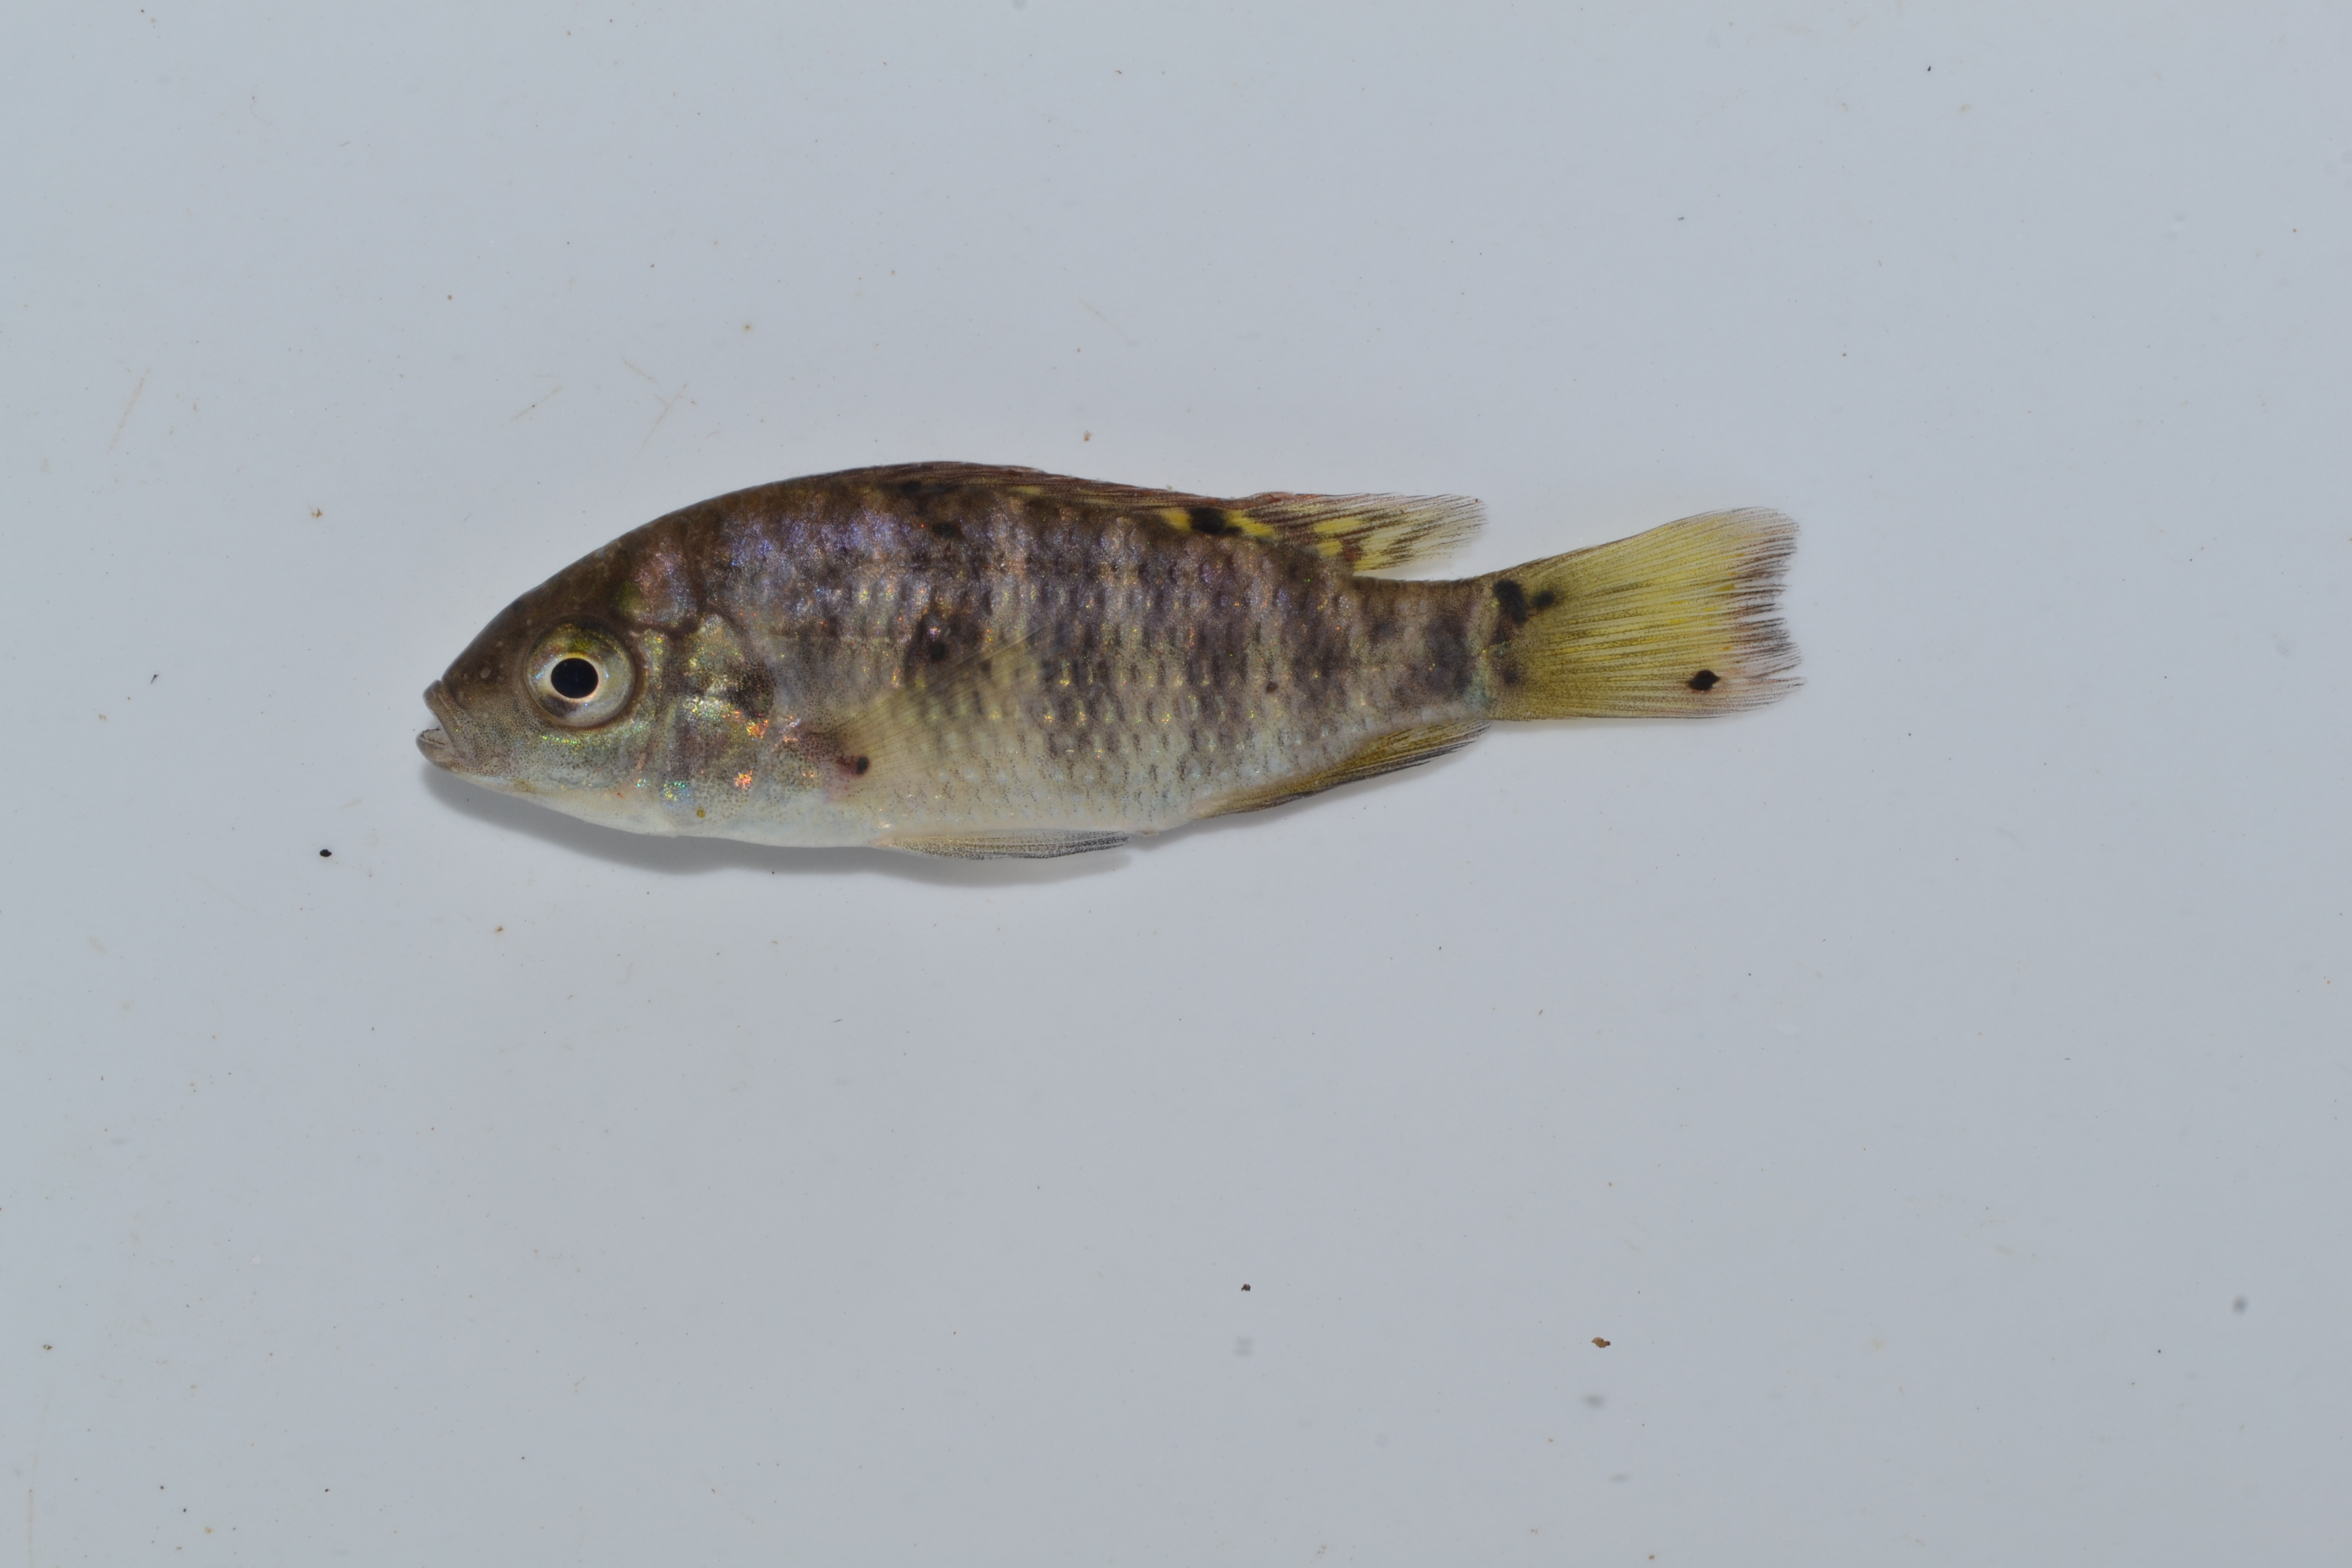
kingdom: Animalia
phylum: Chordata
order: Perciformes
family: Cichlidae
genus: Tilapia
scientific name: Tilapia sparrmanii
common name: Banded tilapia
